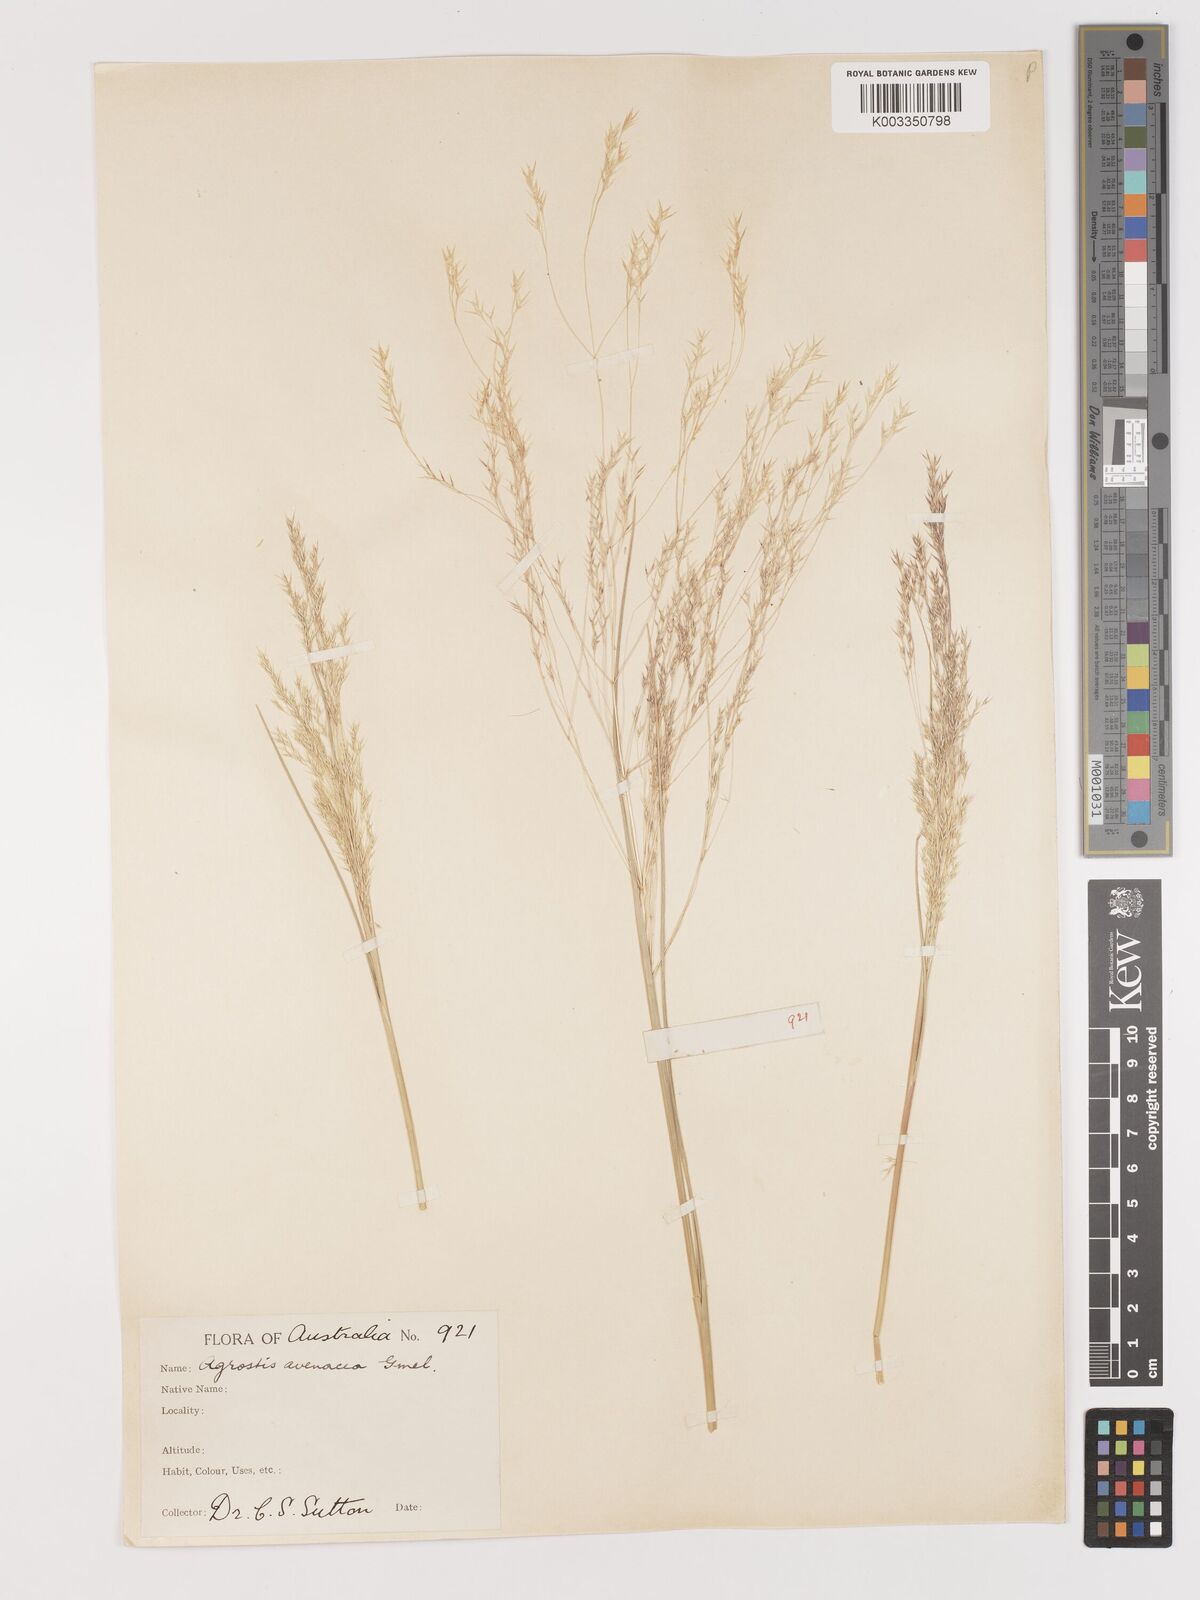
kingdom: Plantae
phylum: Tracheophyta
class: Liliopsida
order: Poales
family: Poaceae
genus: Lachnagrostis
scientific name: Lachnagrostis filiformis
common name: Bentgrass
